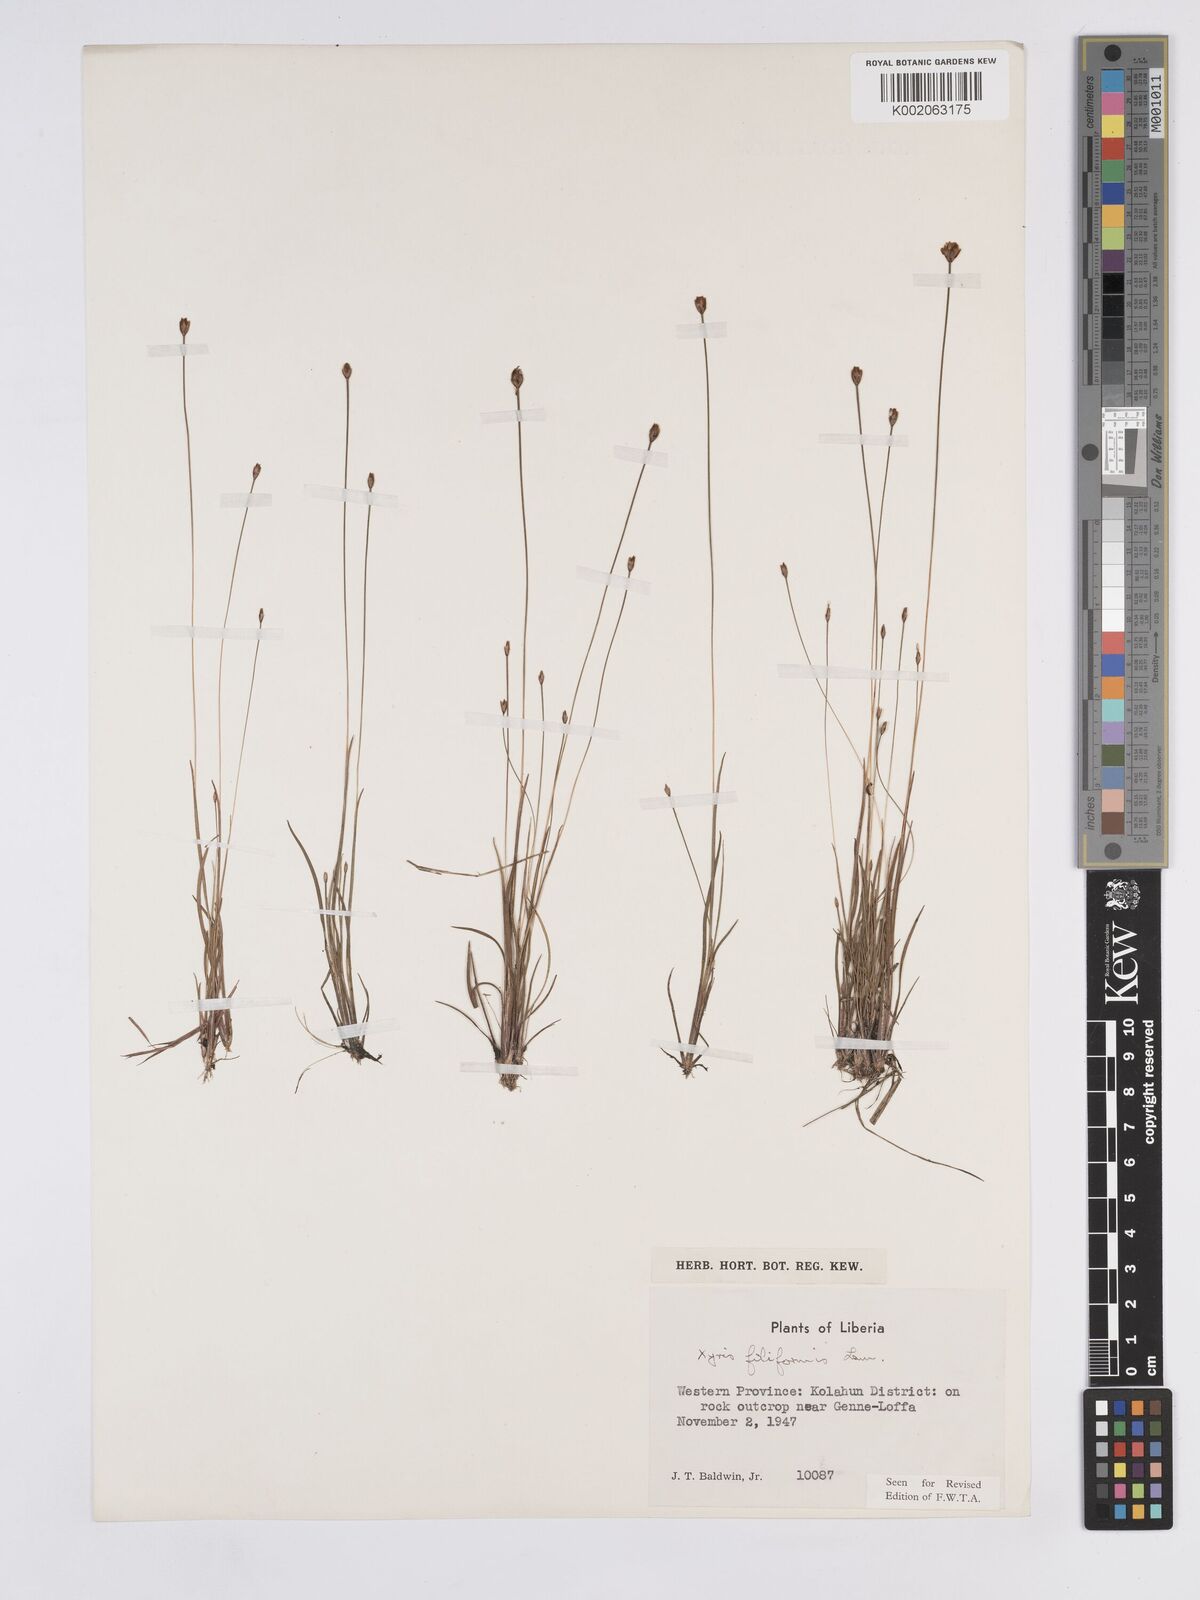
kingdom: Plantae
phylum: Tracheophyta
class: Liliopsida
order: Poales
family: Xyridaceae
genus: Xyris
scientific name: Xyris filiformis
